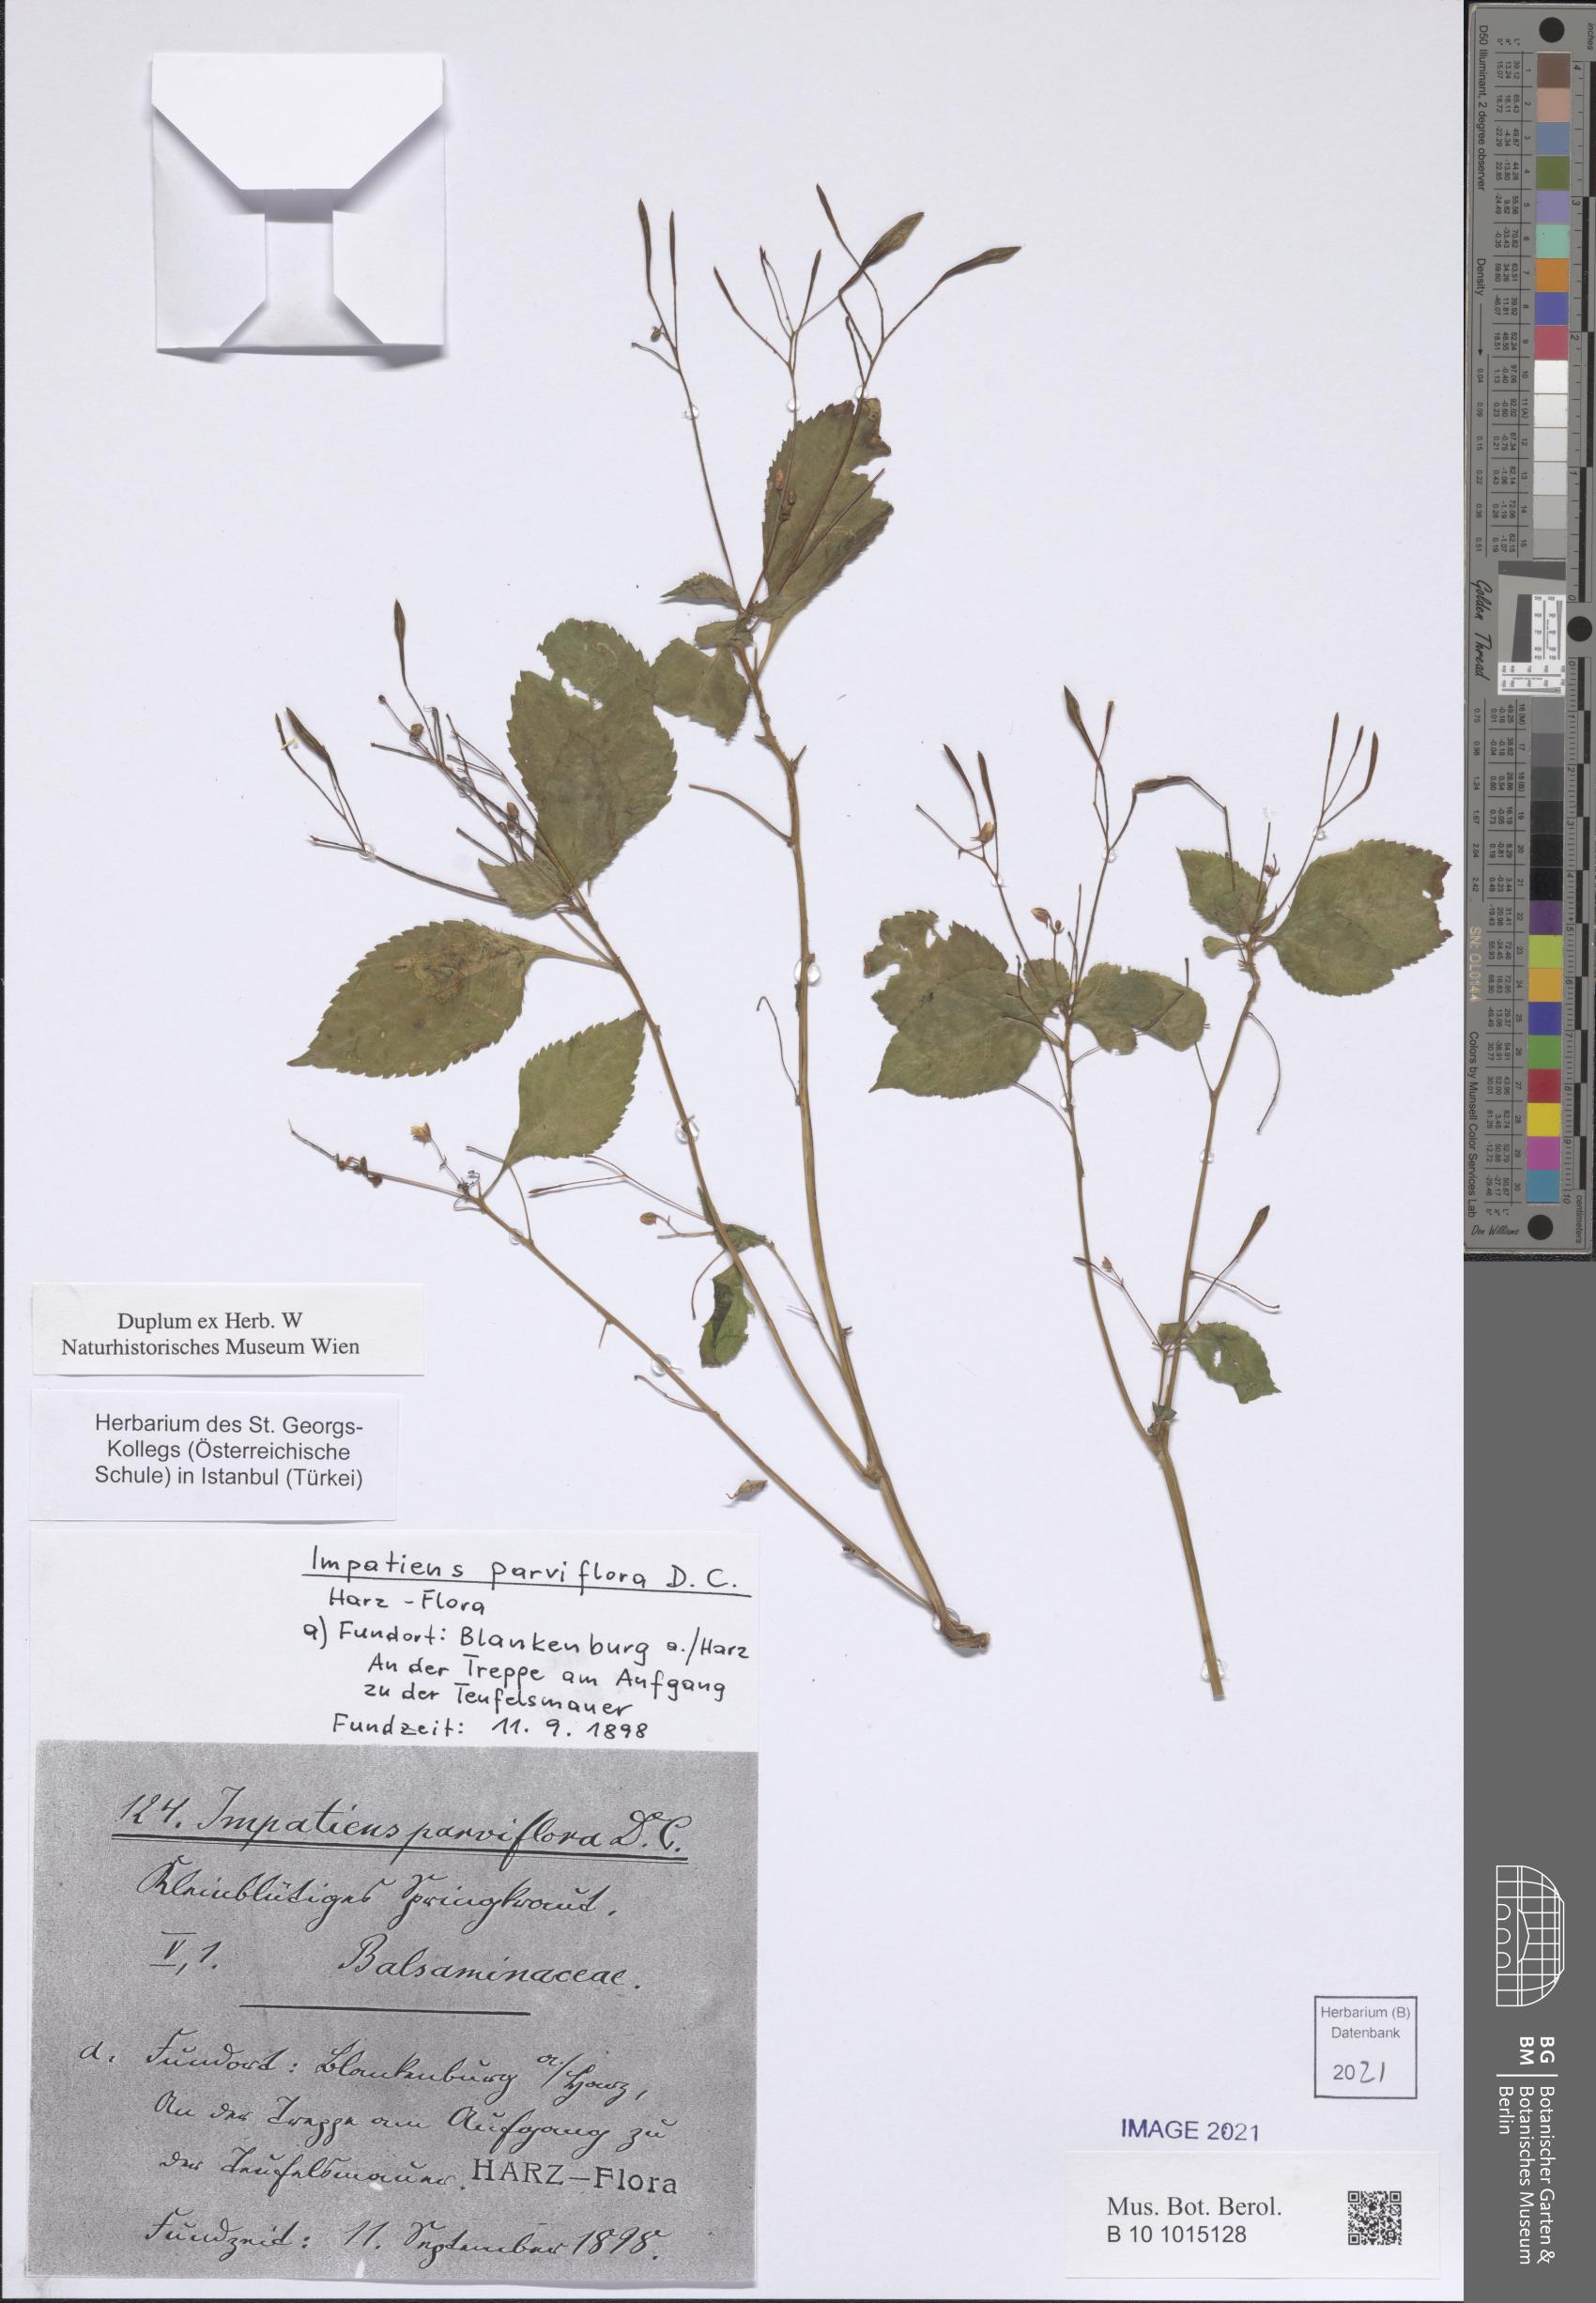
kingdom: Plantae
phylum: Tracheophyta
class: Magnoliopsida
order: Ericales
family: Balsaminaceae
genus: Impatiens
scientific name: Impatiens parviflora
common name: Small balsam
